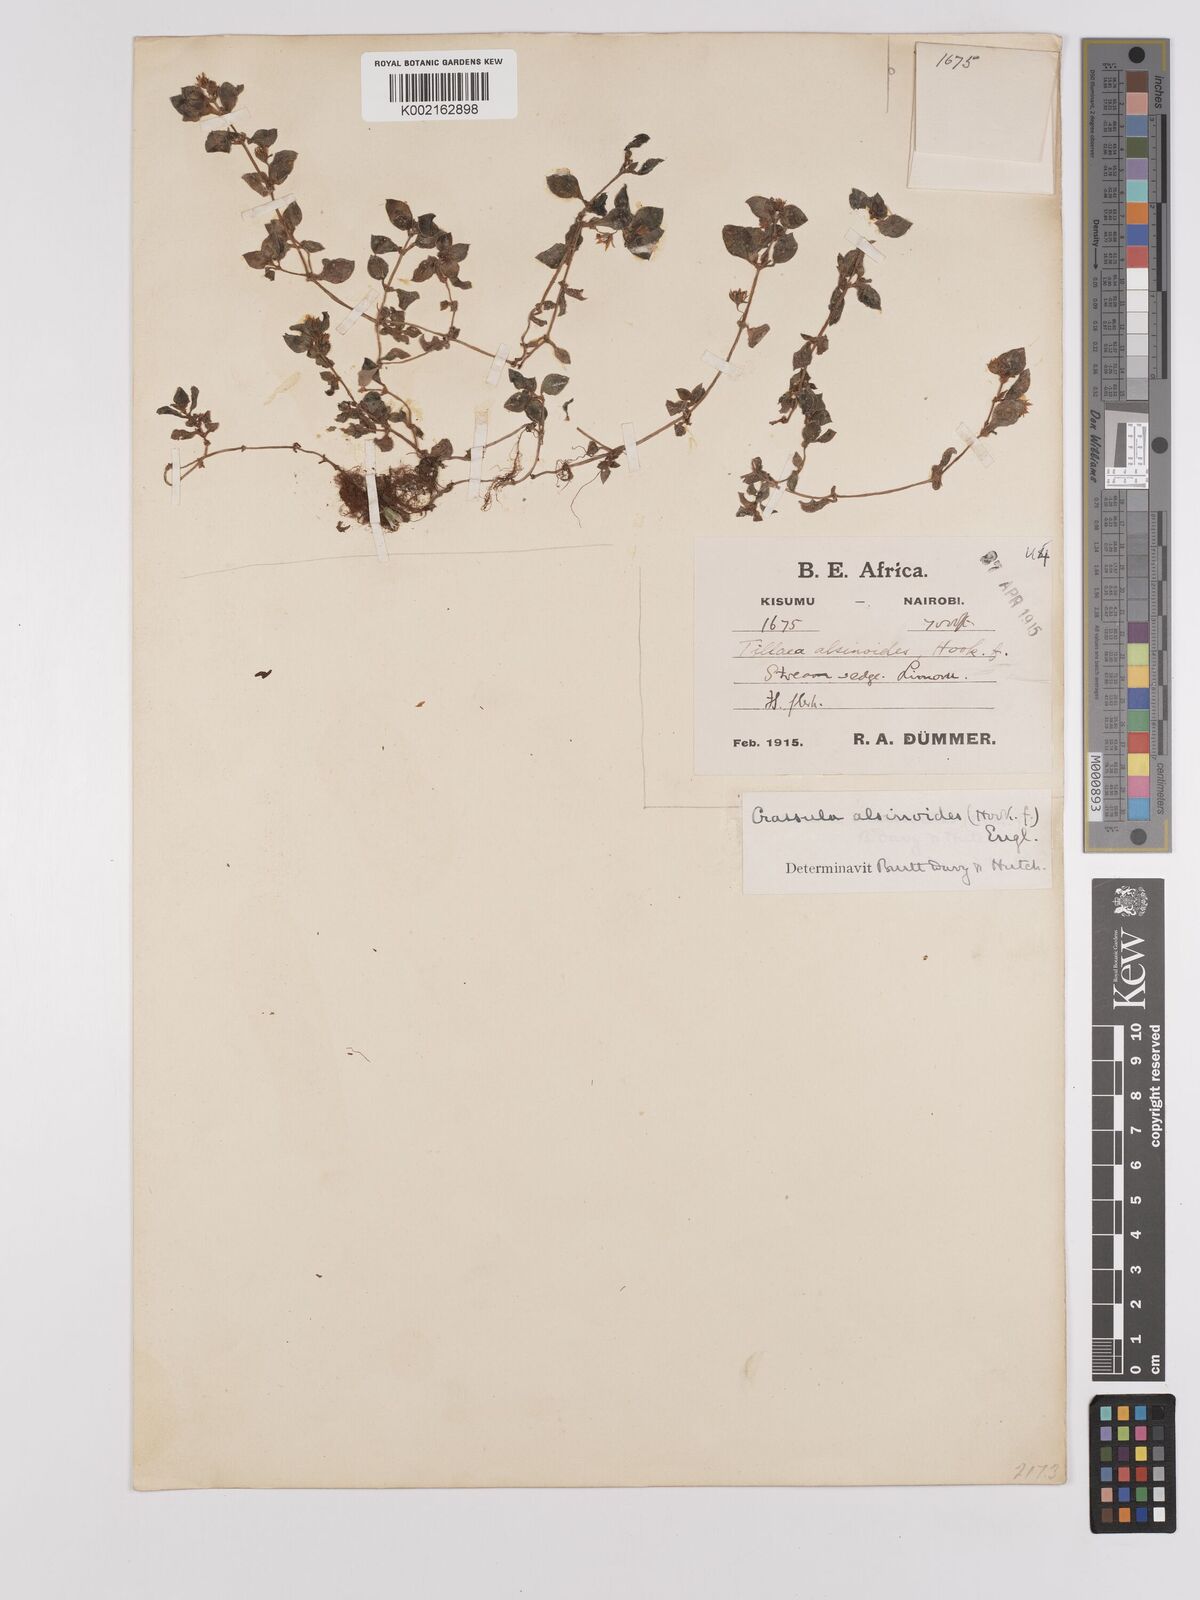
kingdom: Plantae
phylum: Tracheophyta
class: Magnoliopsida
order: Saxifragales
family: Crassulaceae
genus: Crassula
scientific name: Crassula alsinoides
